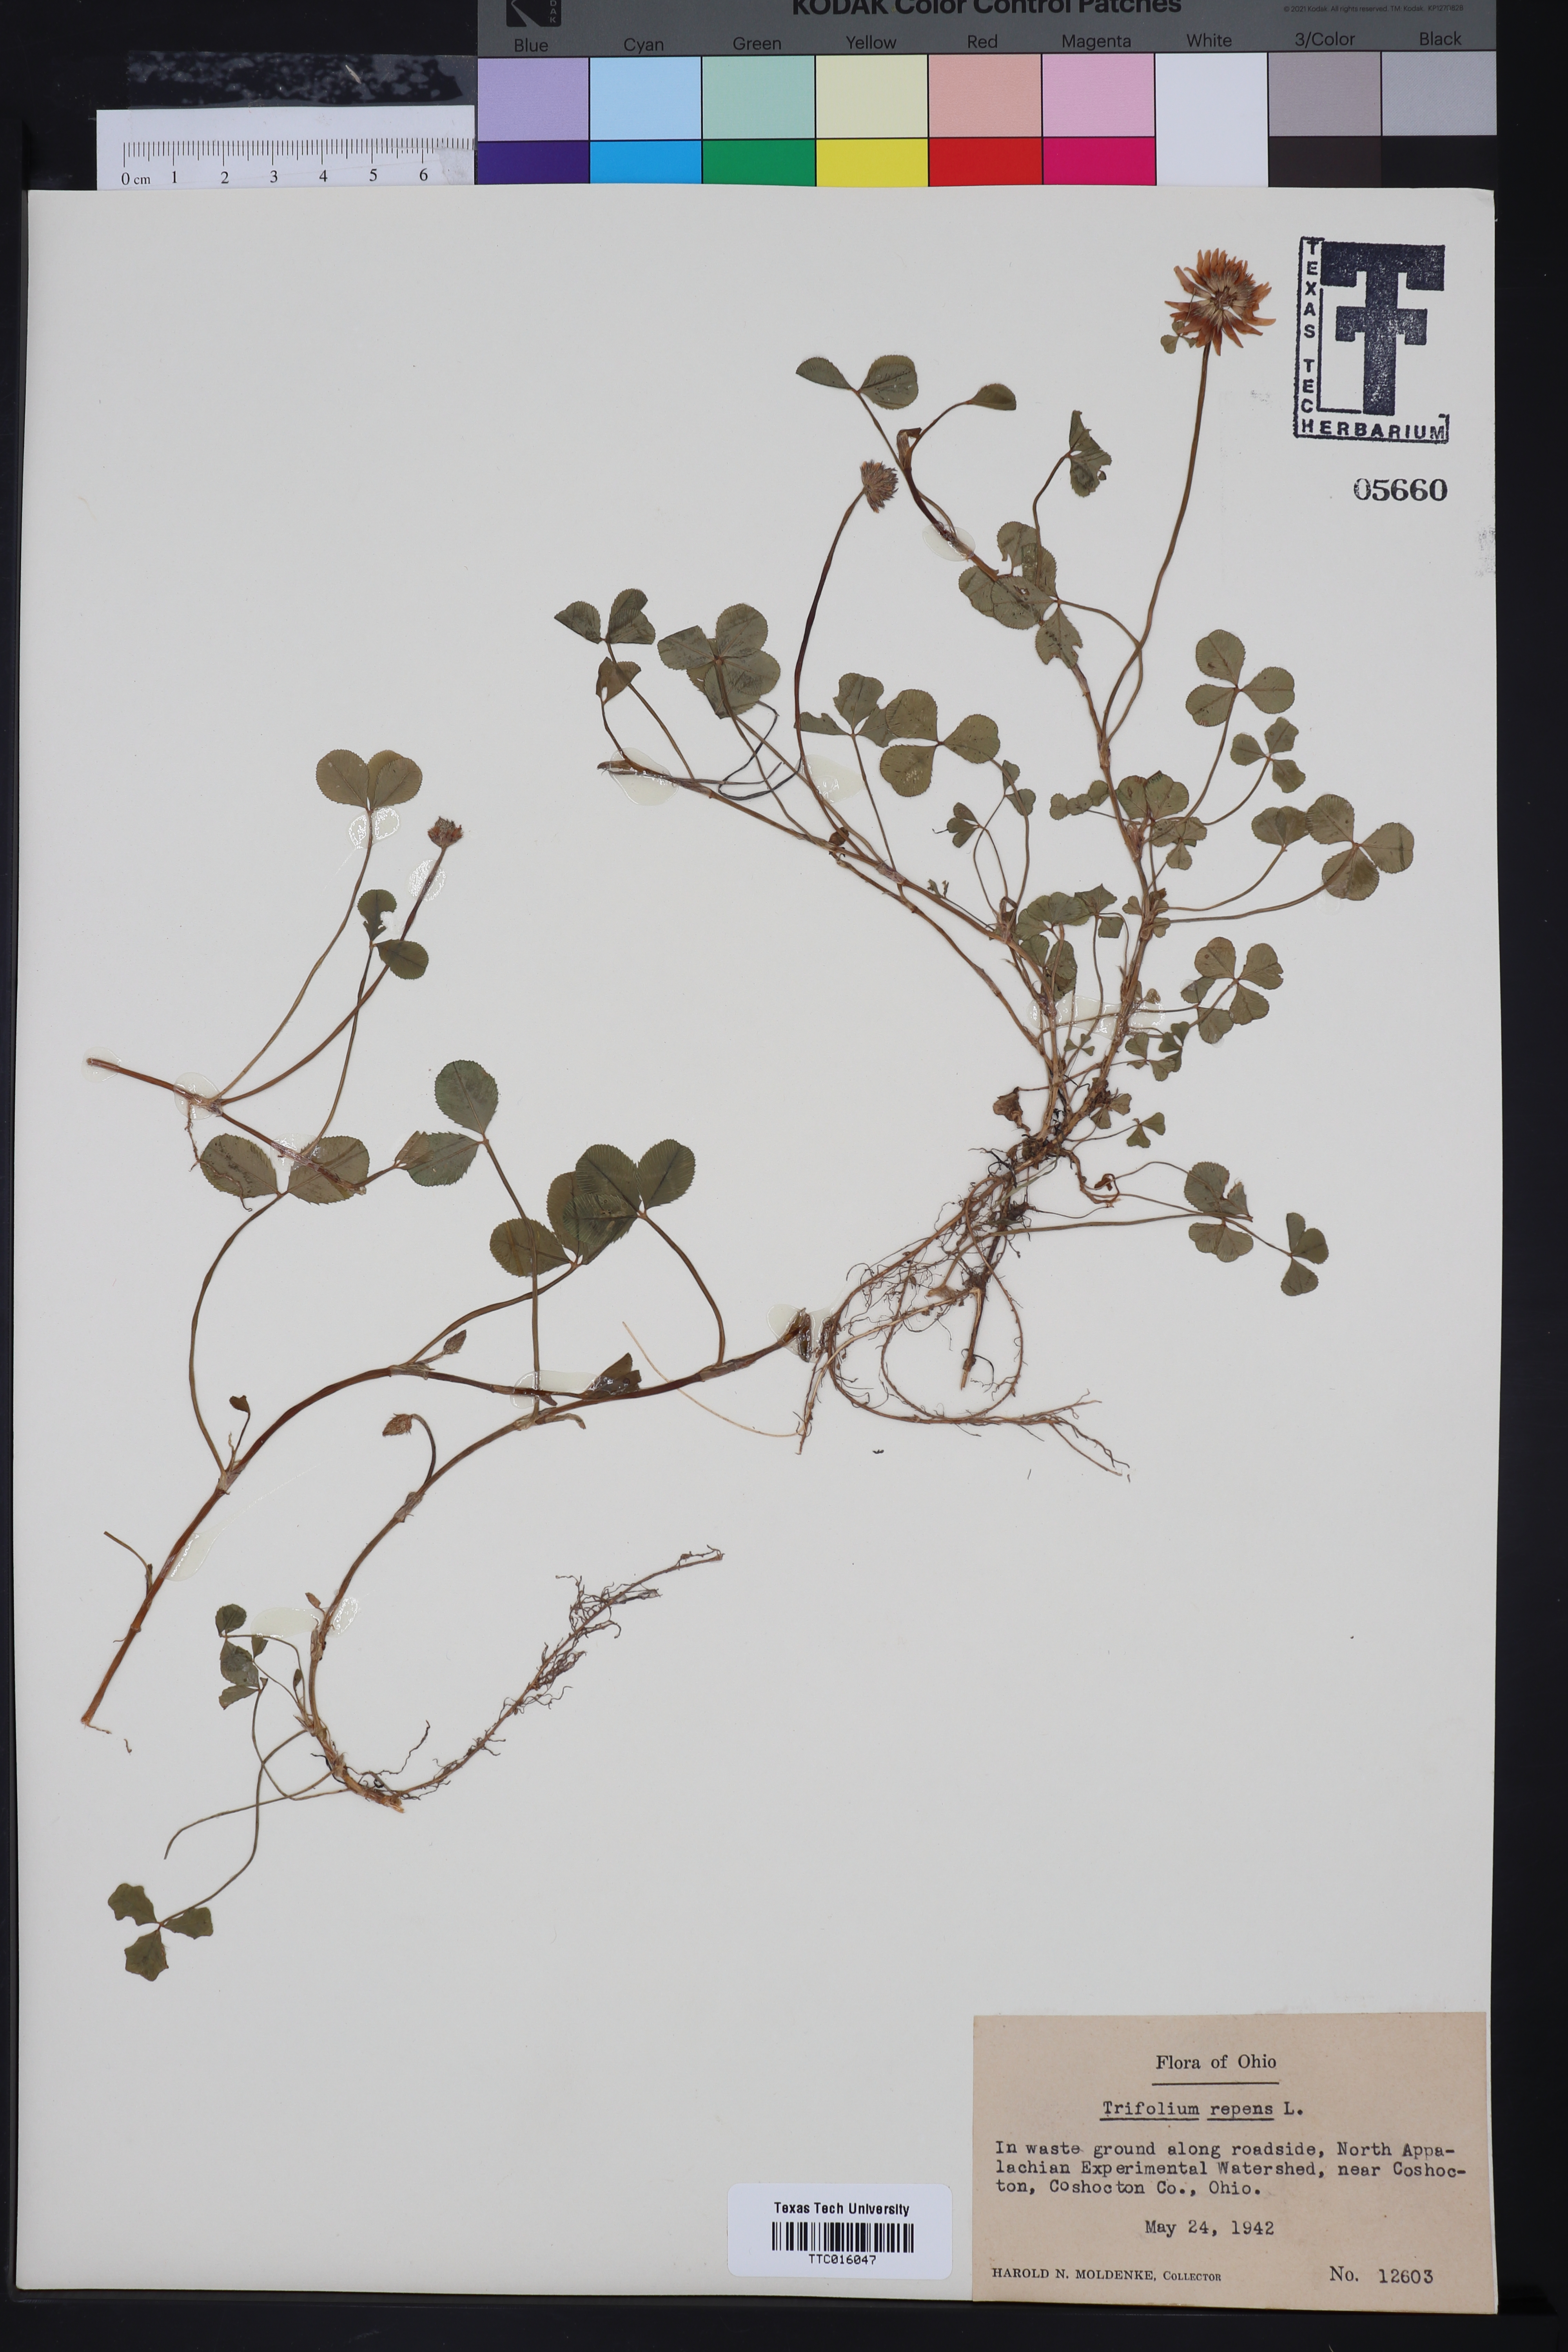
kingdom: Plantae
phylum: Tracheophyta
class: Magnoliopsida
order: Fabales
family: Fabaceae
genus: Trifolium
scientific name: Trifolium repens
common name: White clover
